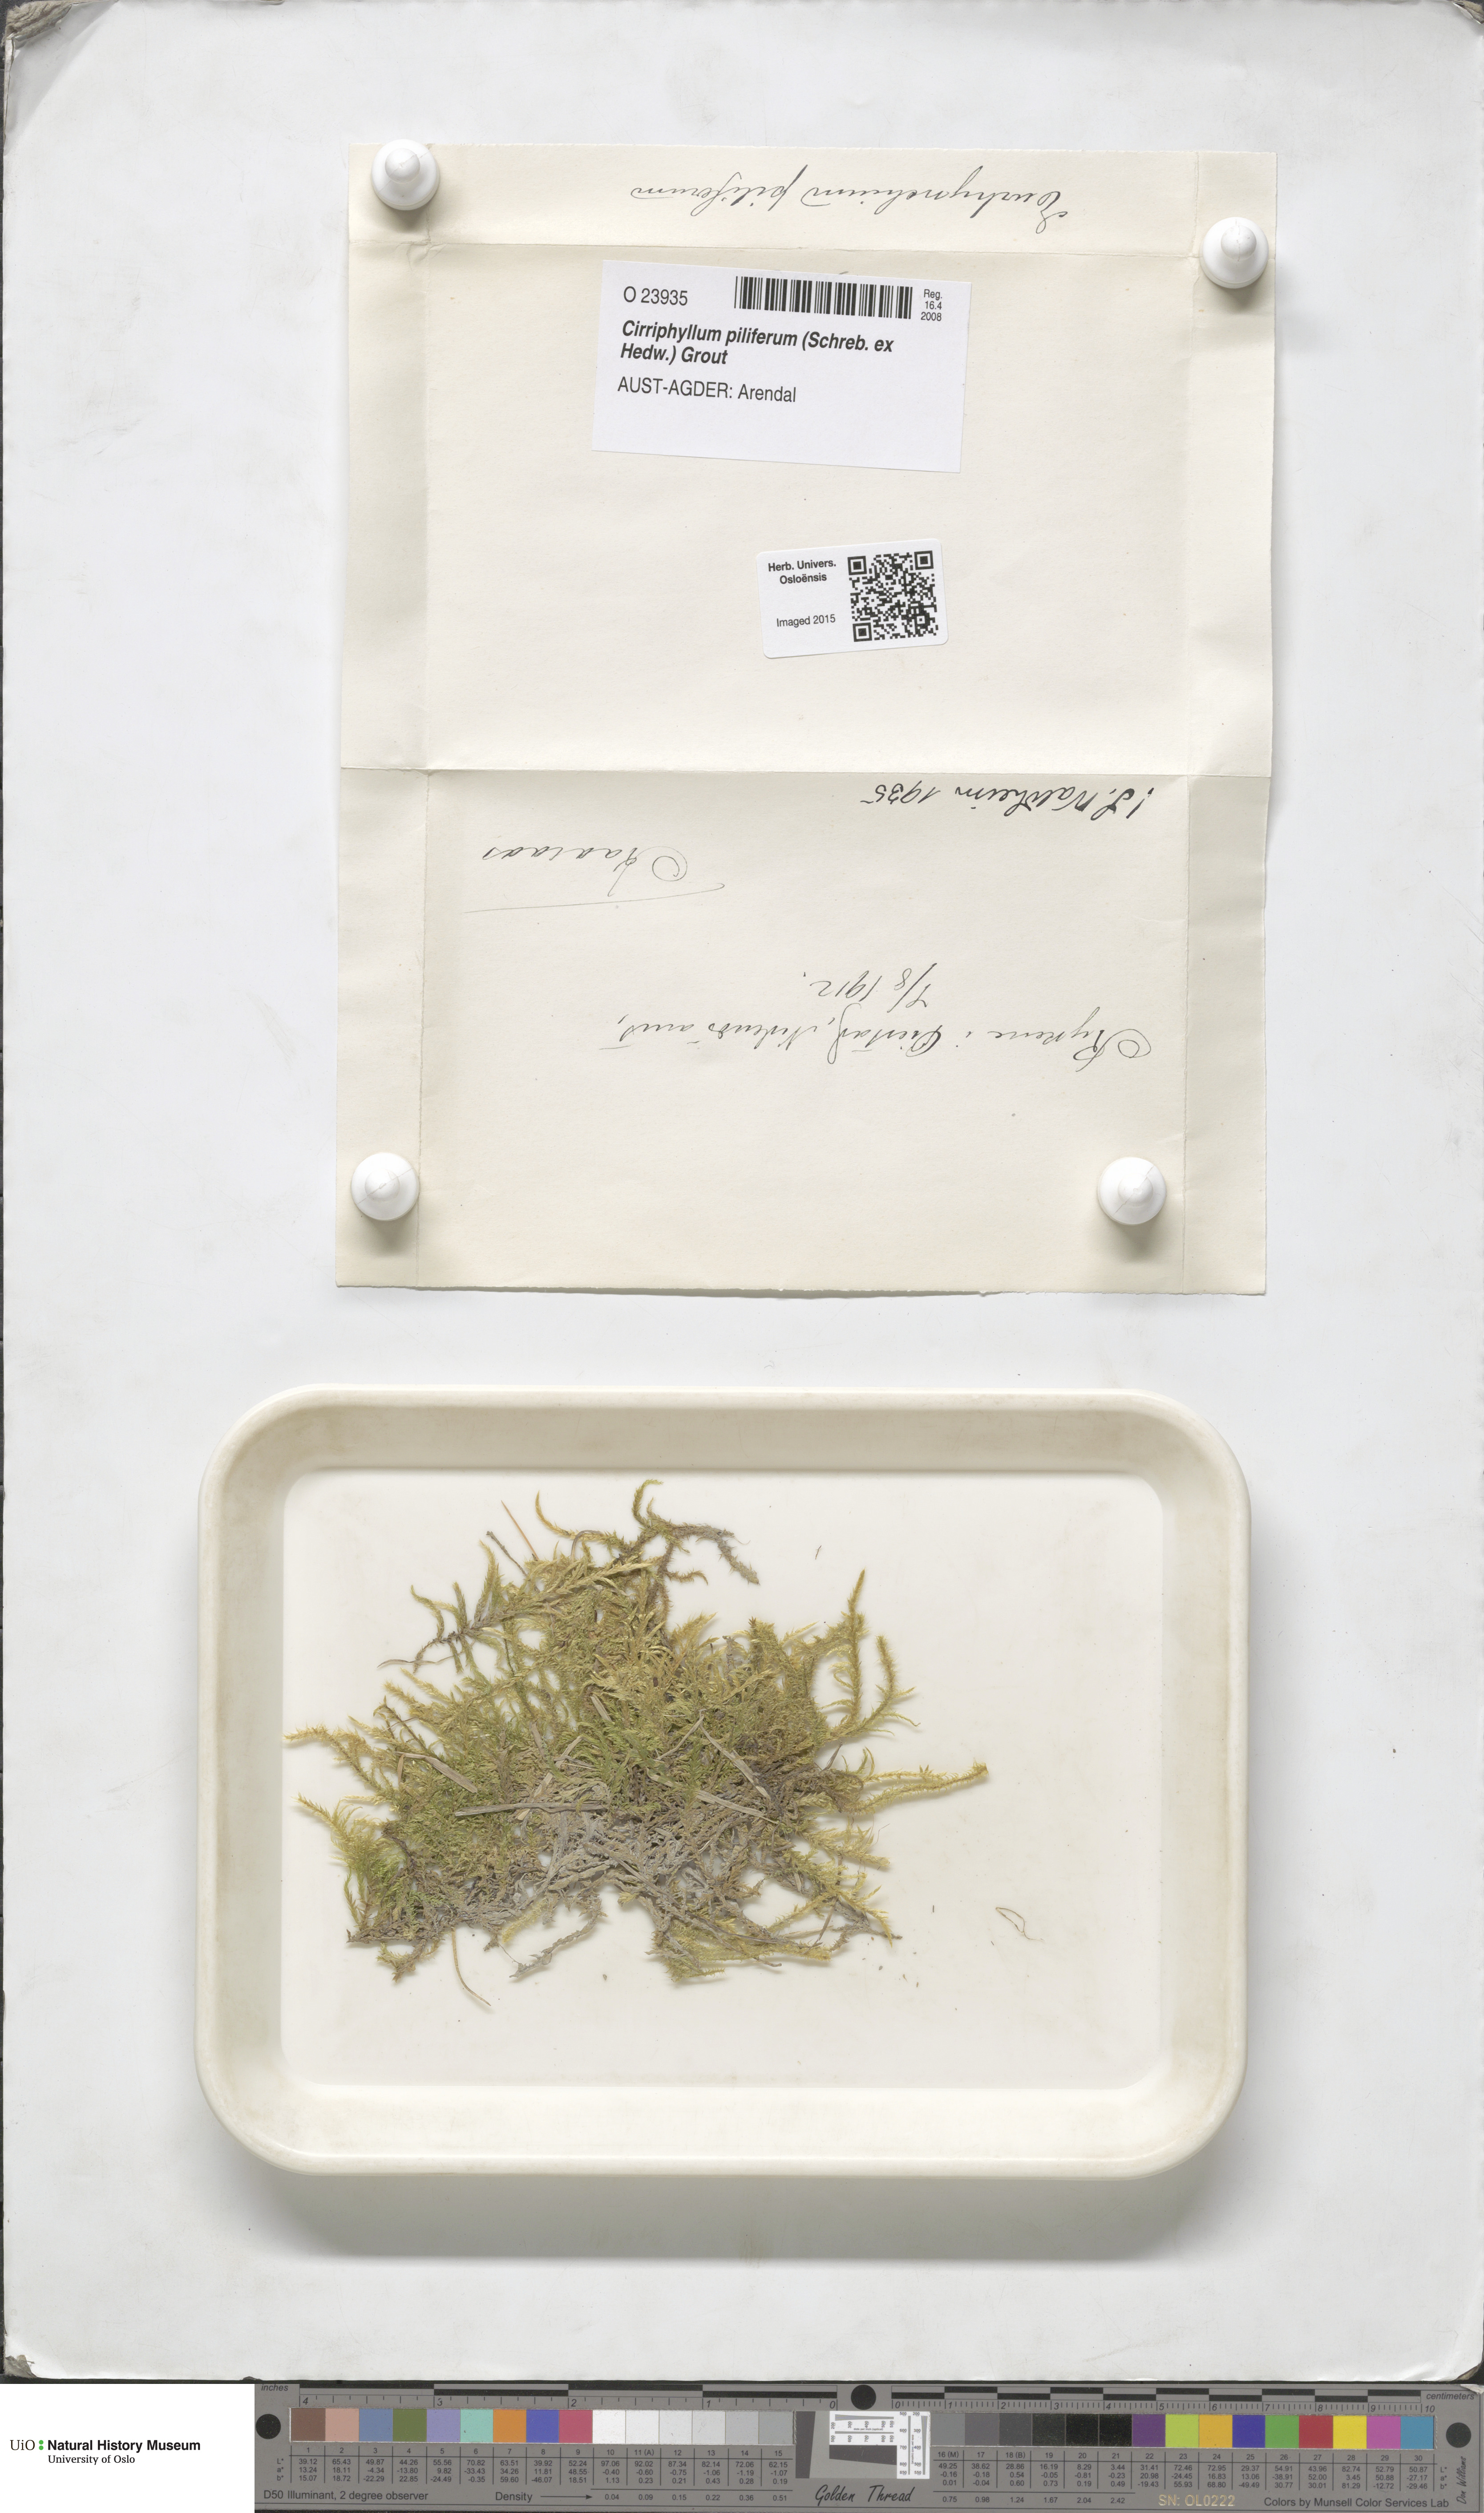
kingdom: Plantae
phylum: Bryophyta
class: Bryopsida
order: Hypnales
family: Brachytheciaceae
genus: Cirriphyllum
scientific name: Cirriphyllum piliferum
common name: Hair-pointed moss
